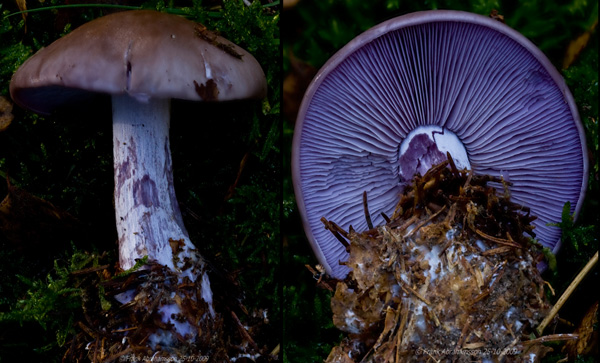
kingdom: Fungi
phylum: Basidiomycota
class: Agaricomycetes
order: Agaricales
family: Tricholomataceae
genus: Lepista
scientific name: Lepista nuda
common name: violet hekseringshat
